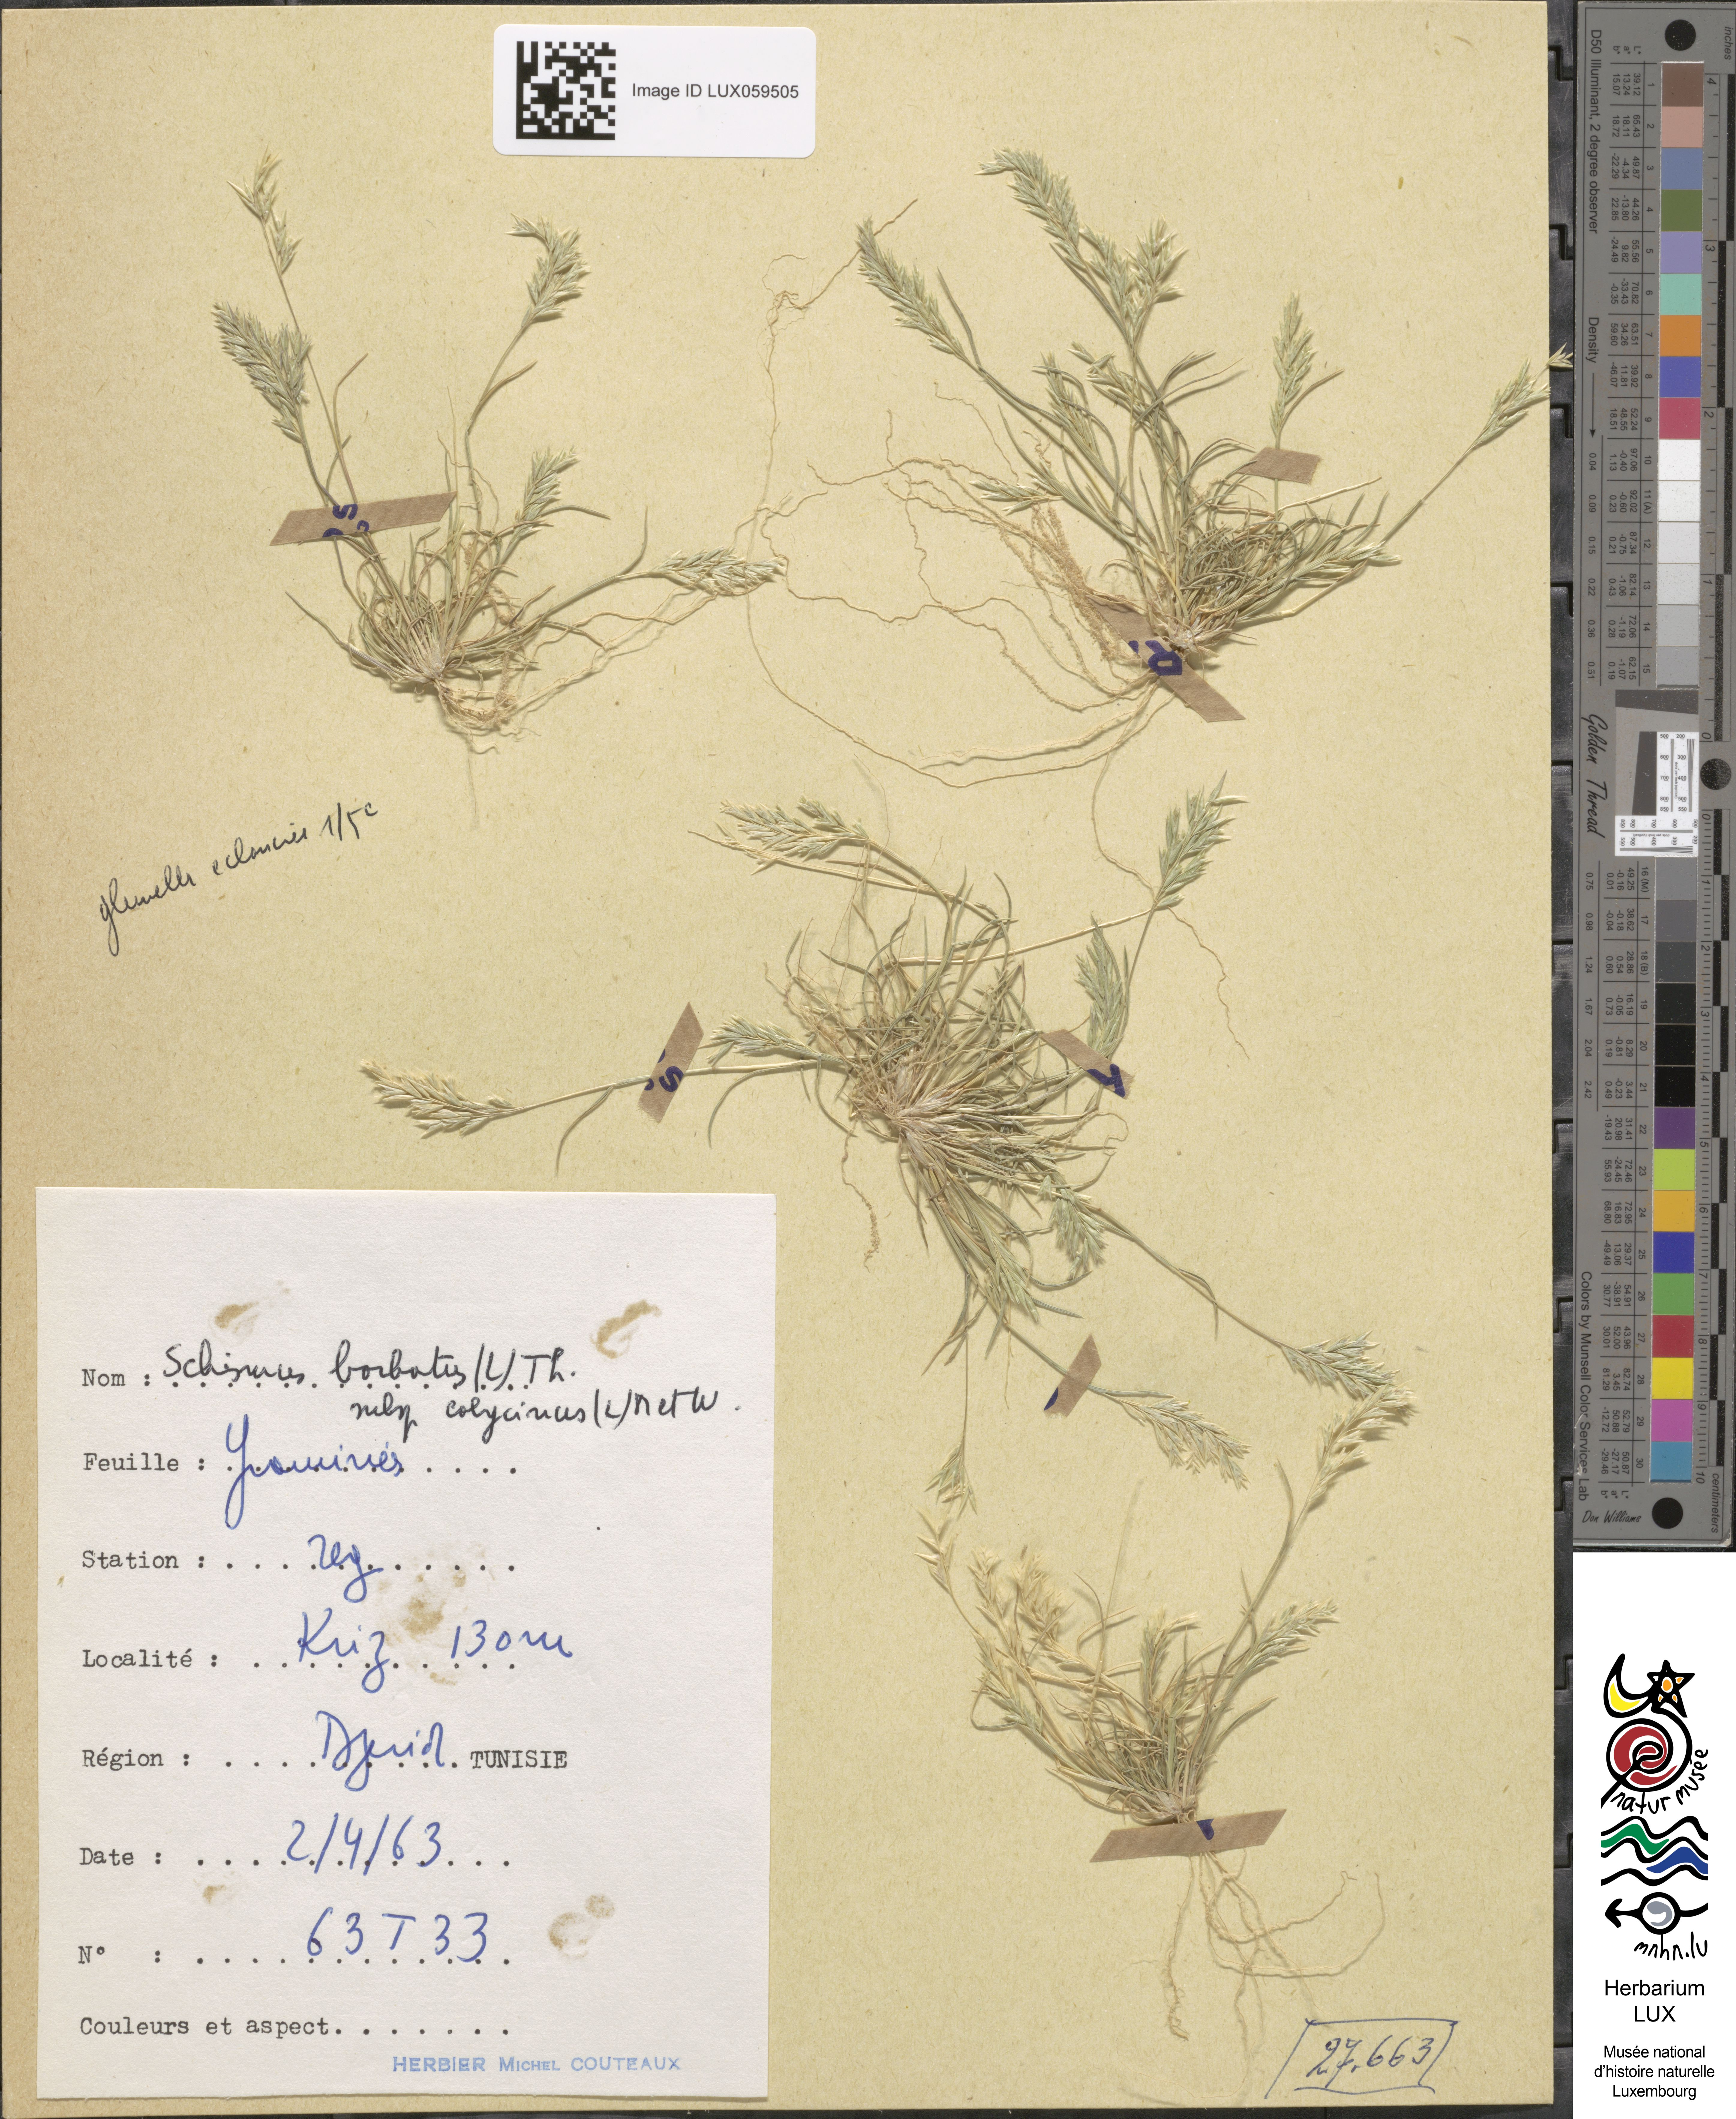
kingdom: Plantae
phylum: Tracheophyta
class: Liliopsida
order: Poales
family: Poaceae
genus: Schismus
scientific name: Schismus barbatus
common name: Kelch-grass
